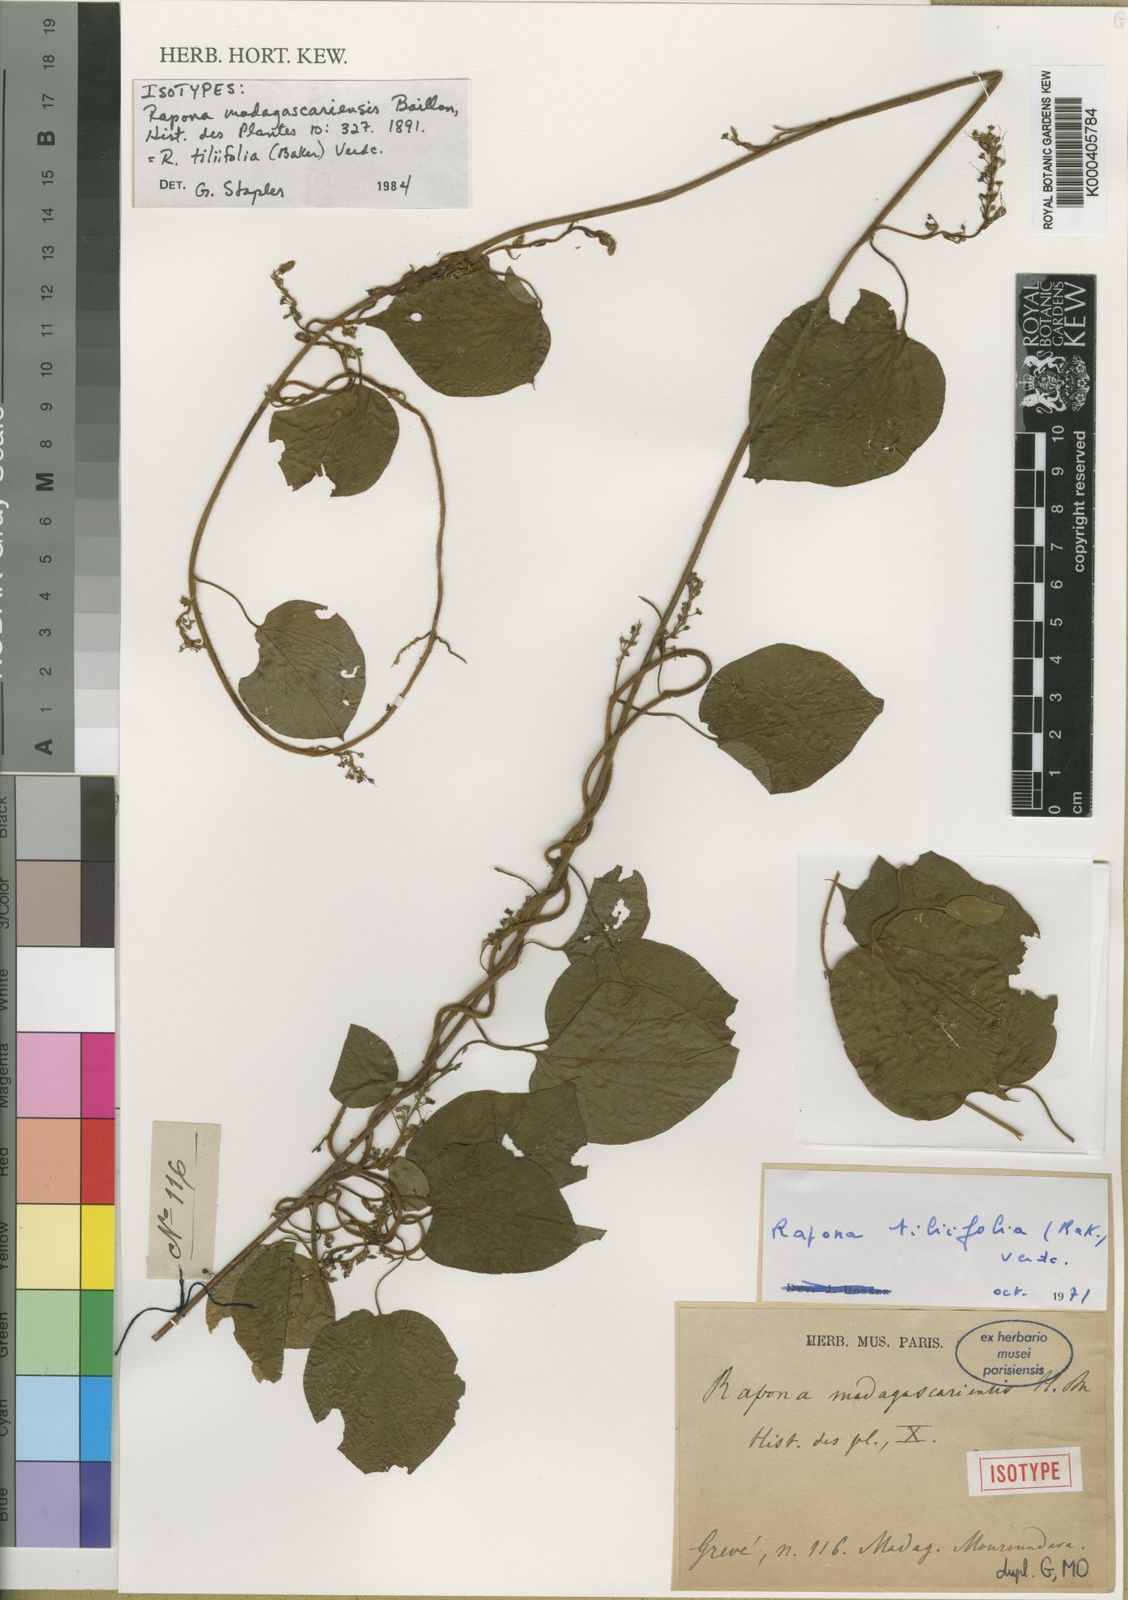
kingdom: Plantae
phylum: Tracheophyta
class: Magnoliopsida
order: Solanales
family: Convolvulaceae
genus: Rapona
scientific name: Rapona tiliifolia
